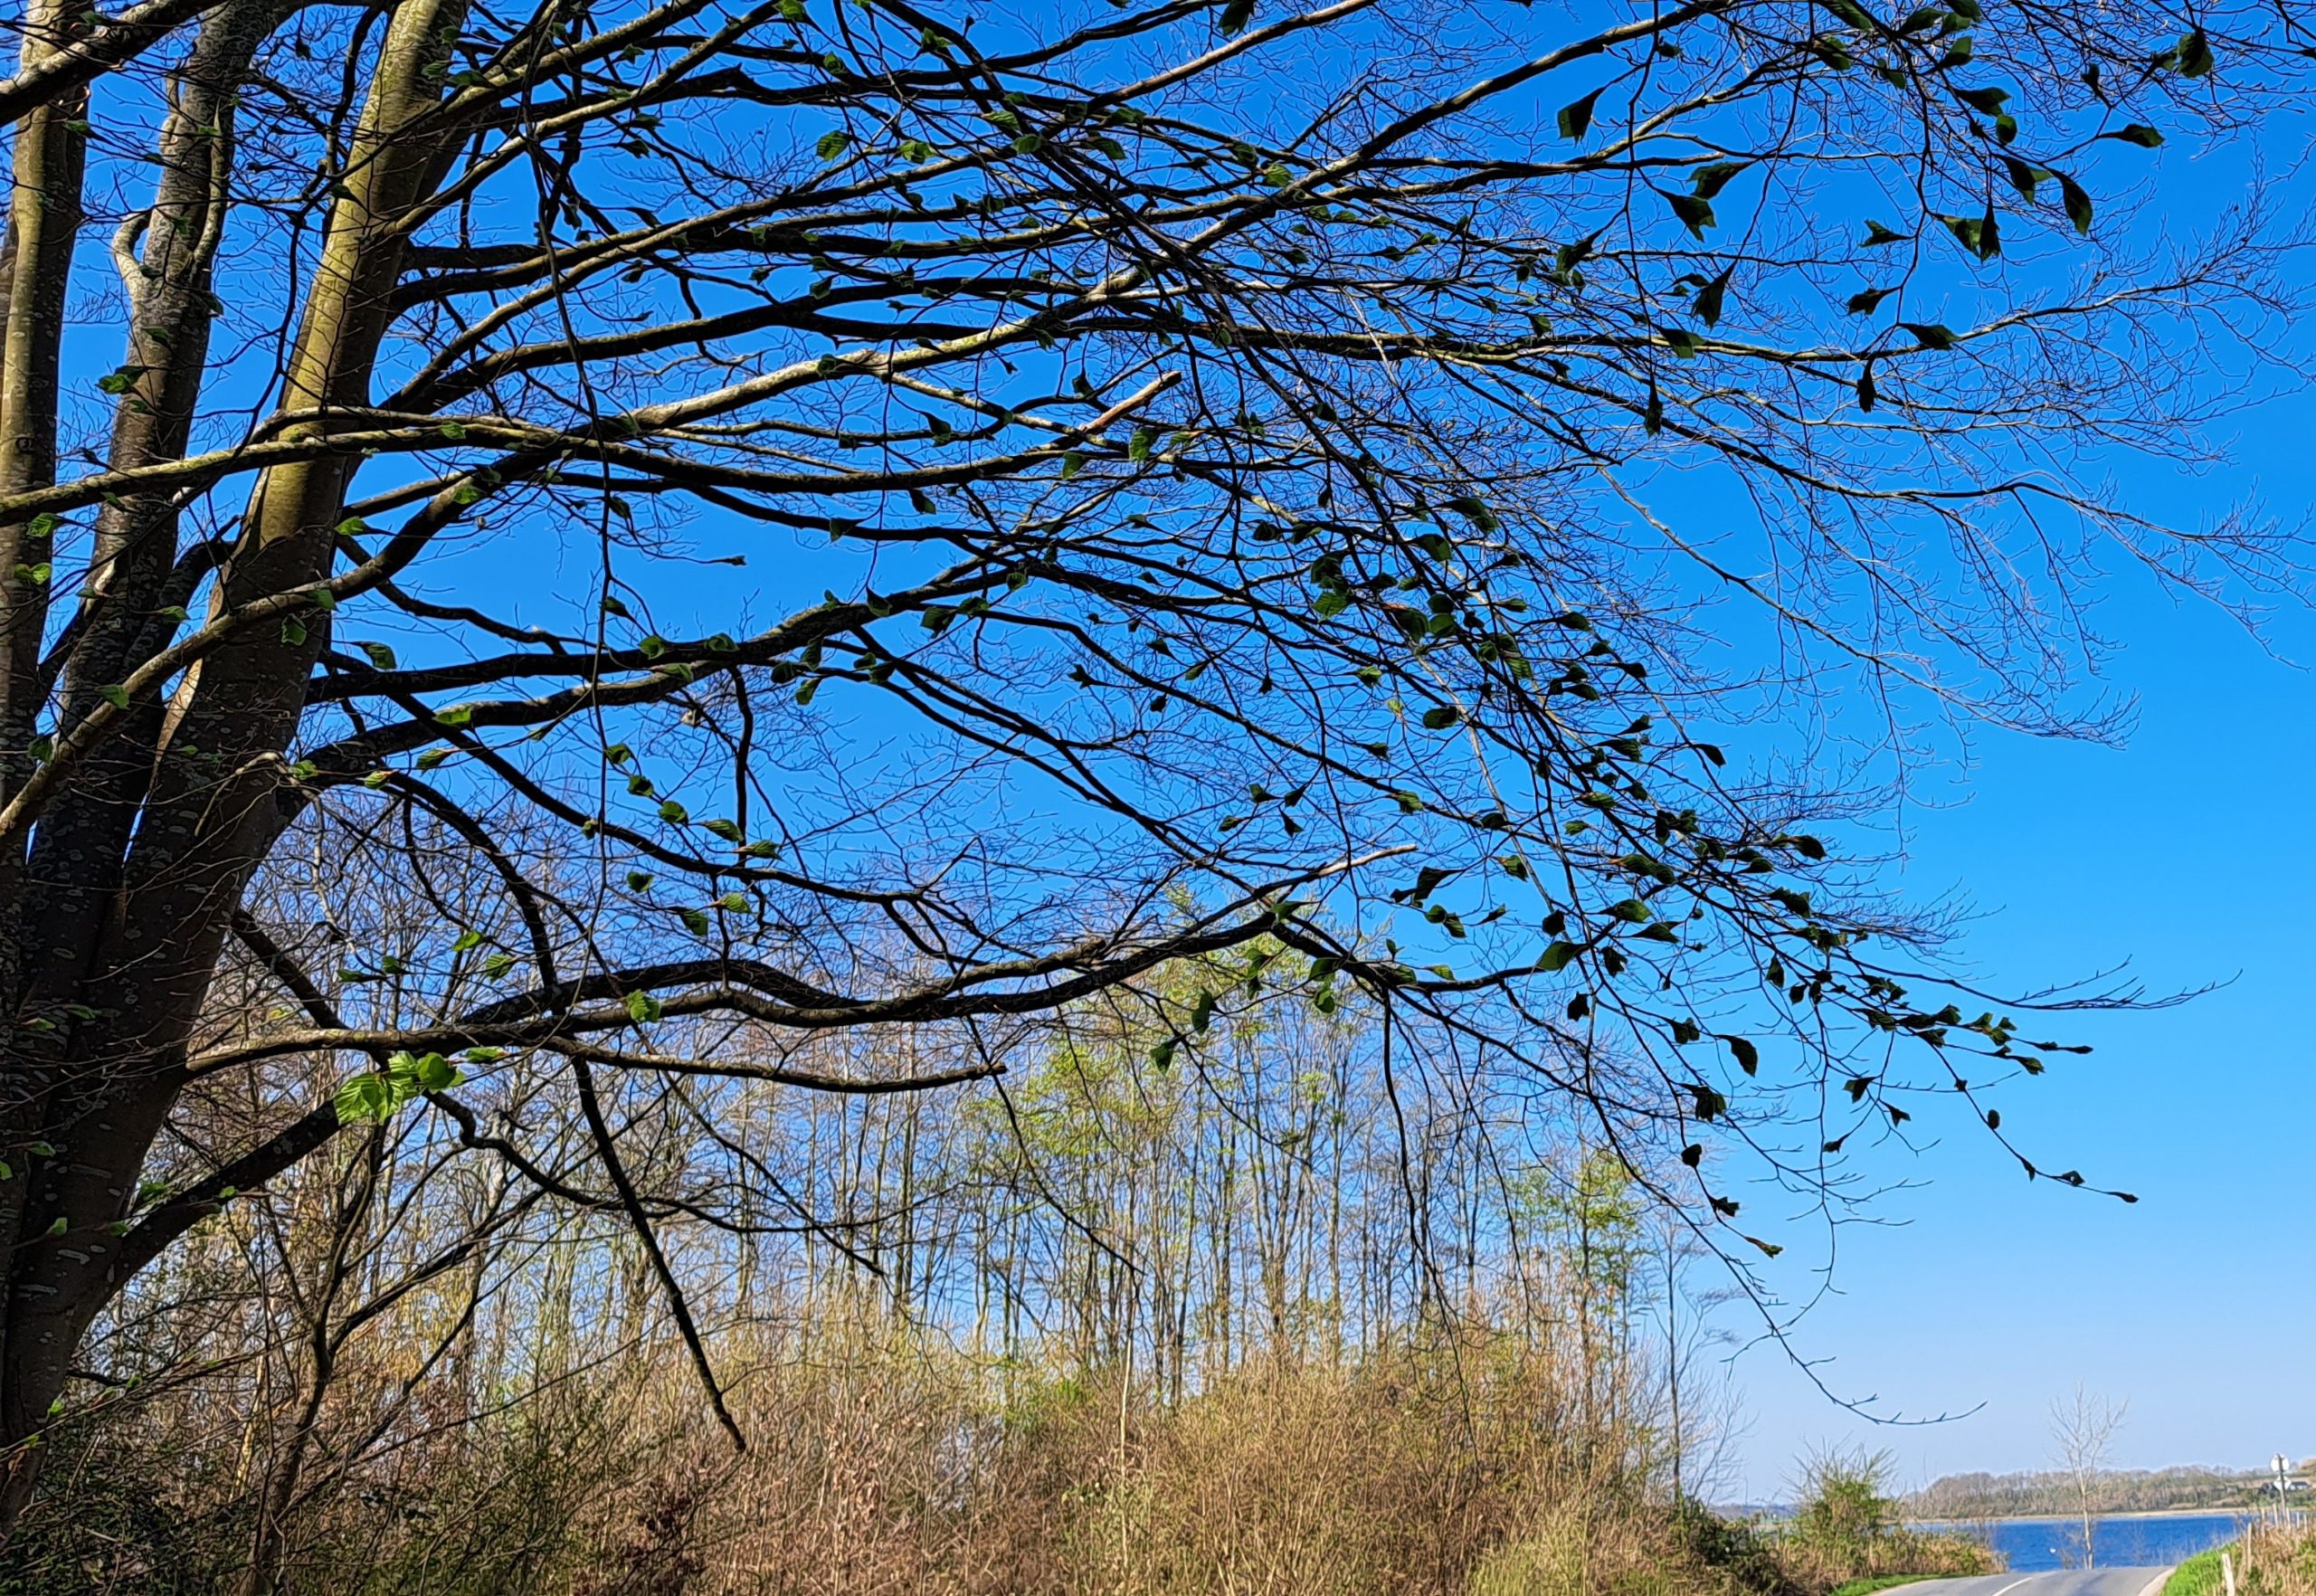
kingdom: Plantae
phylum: Tracheophyta
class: Magnoliopsida
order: Fagales
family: Fagaceae
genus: Fagus
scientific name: Fagus sylvatica
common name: Bøg
